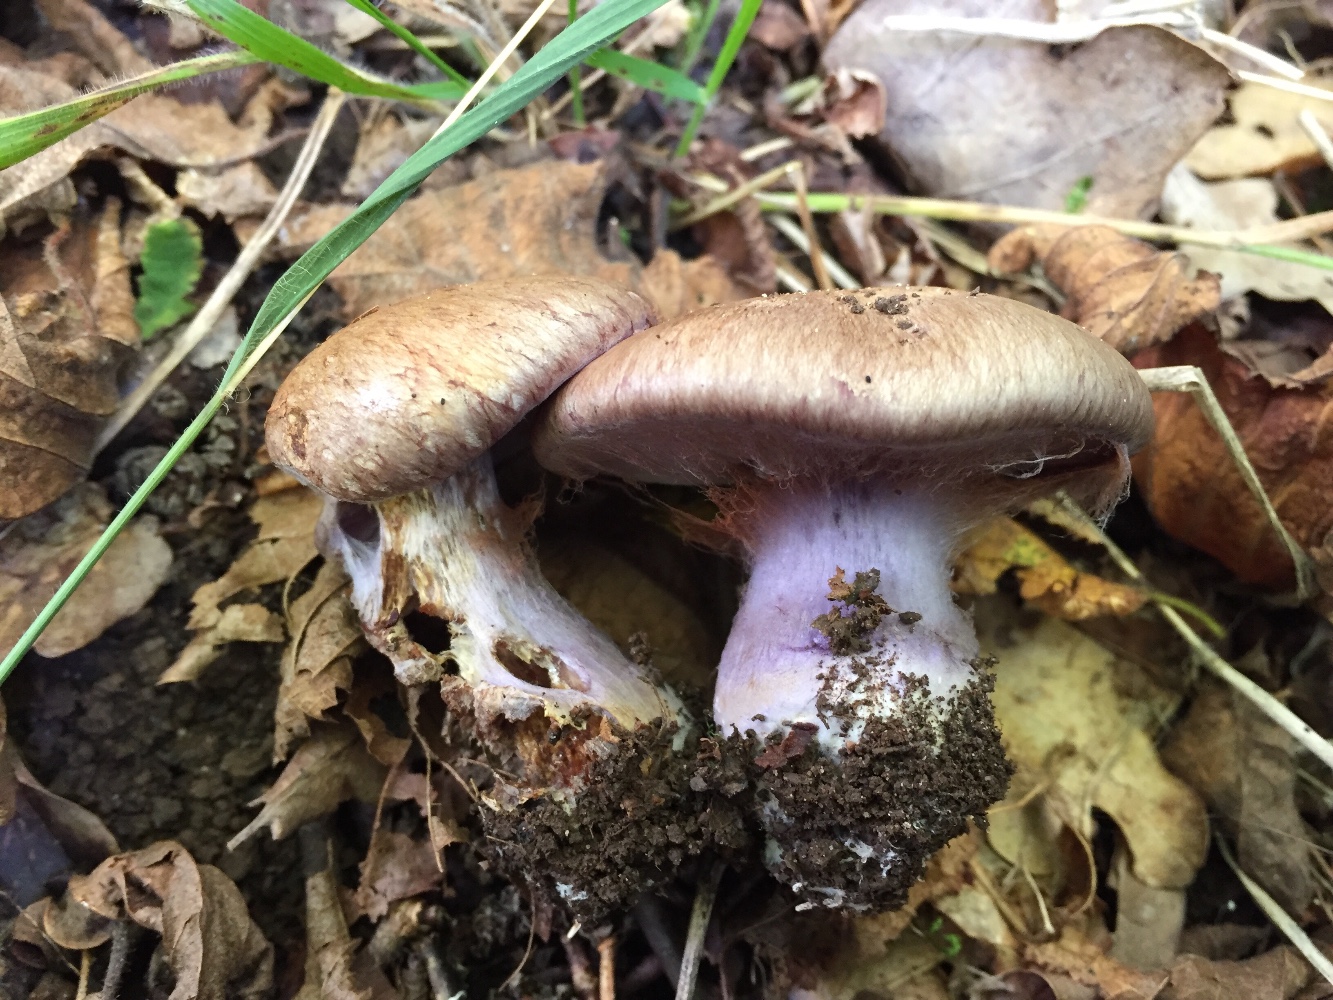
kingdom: Fungi
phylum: Basidiomycota
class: Agaricomycetes
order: Agaricales
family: Cortinariaceae
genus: Phlegmacium
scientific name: Phlegmacium prasinocyaneum
